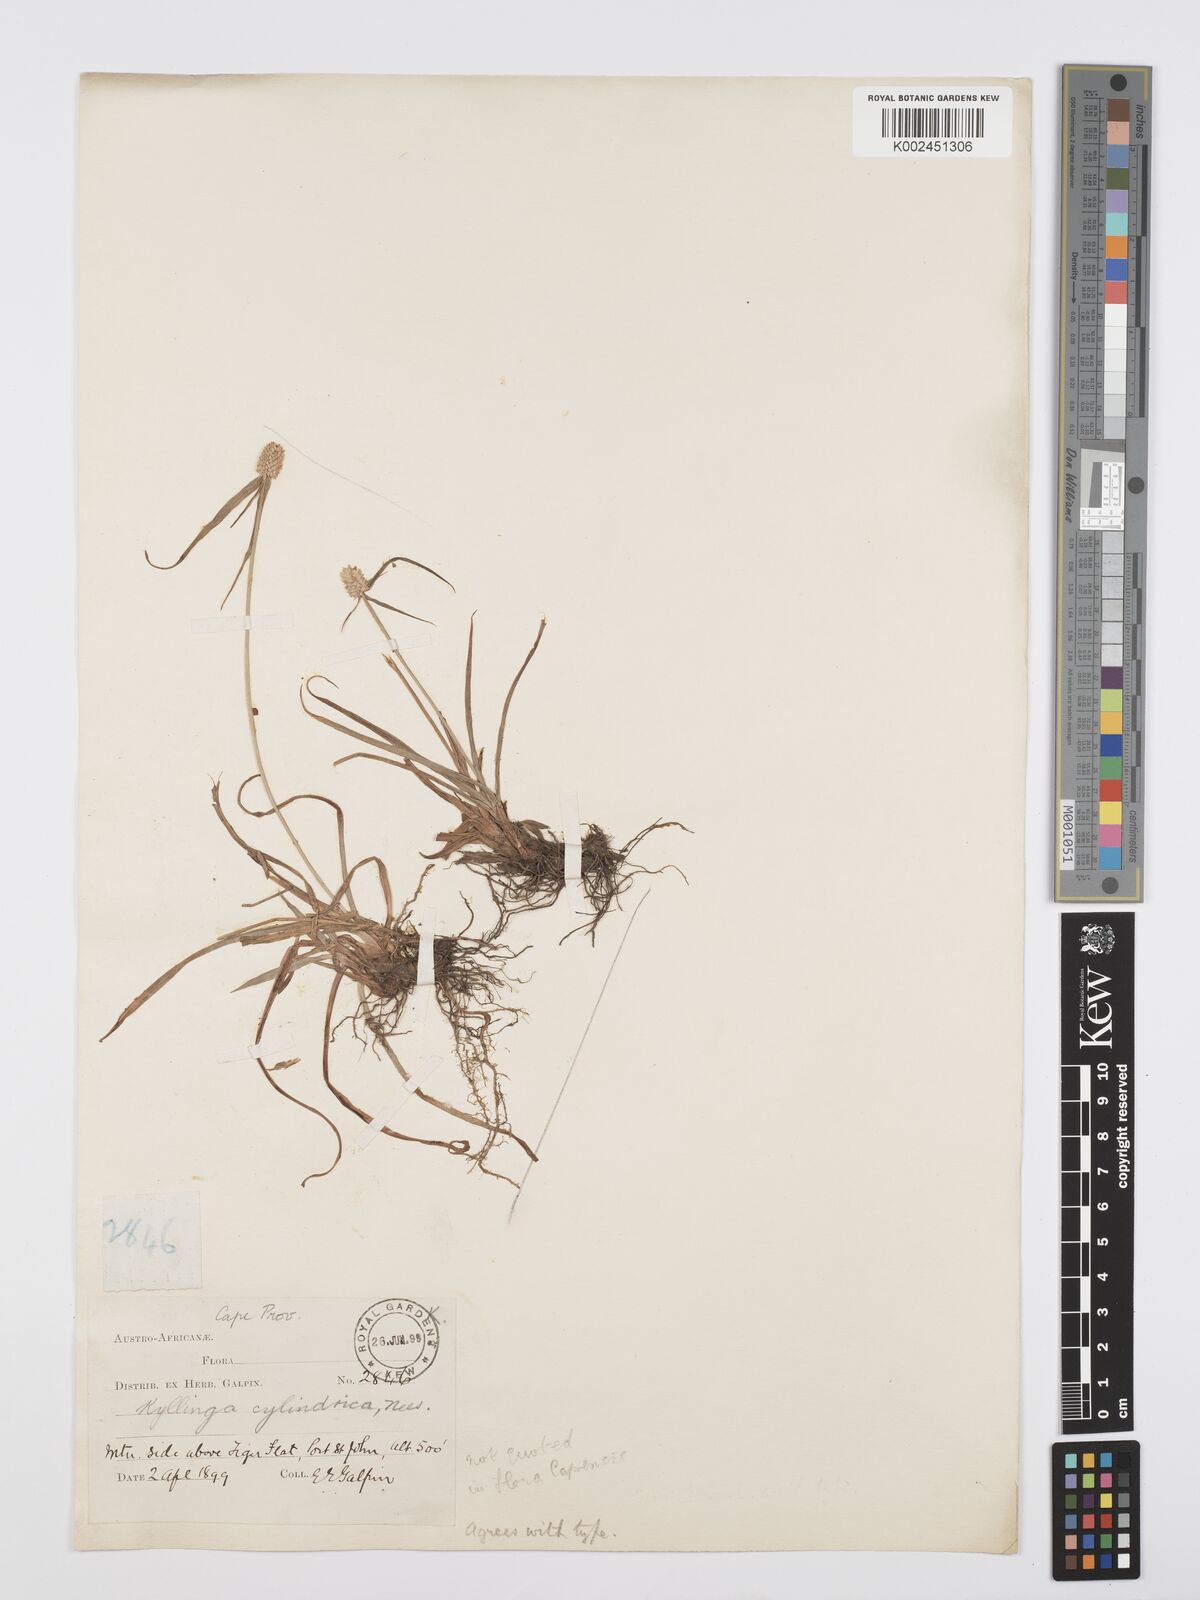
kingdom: Plantae
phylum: Tracheophyta
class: Liliopsida
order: Poales
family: Cyperaceae
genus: Cyperus
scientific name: Cyperus
